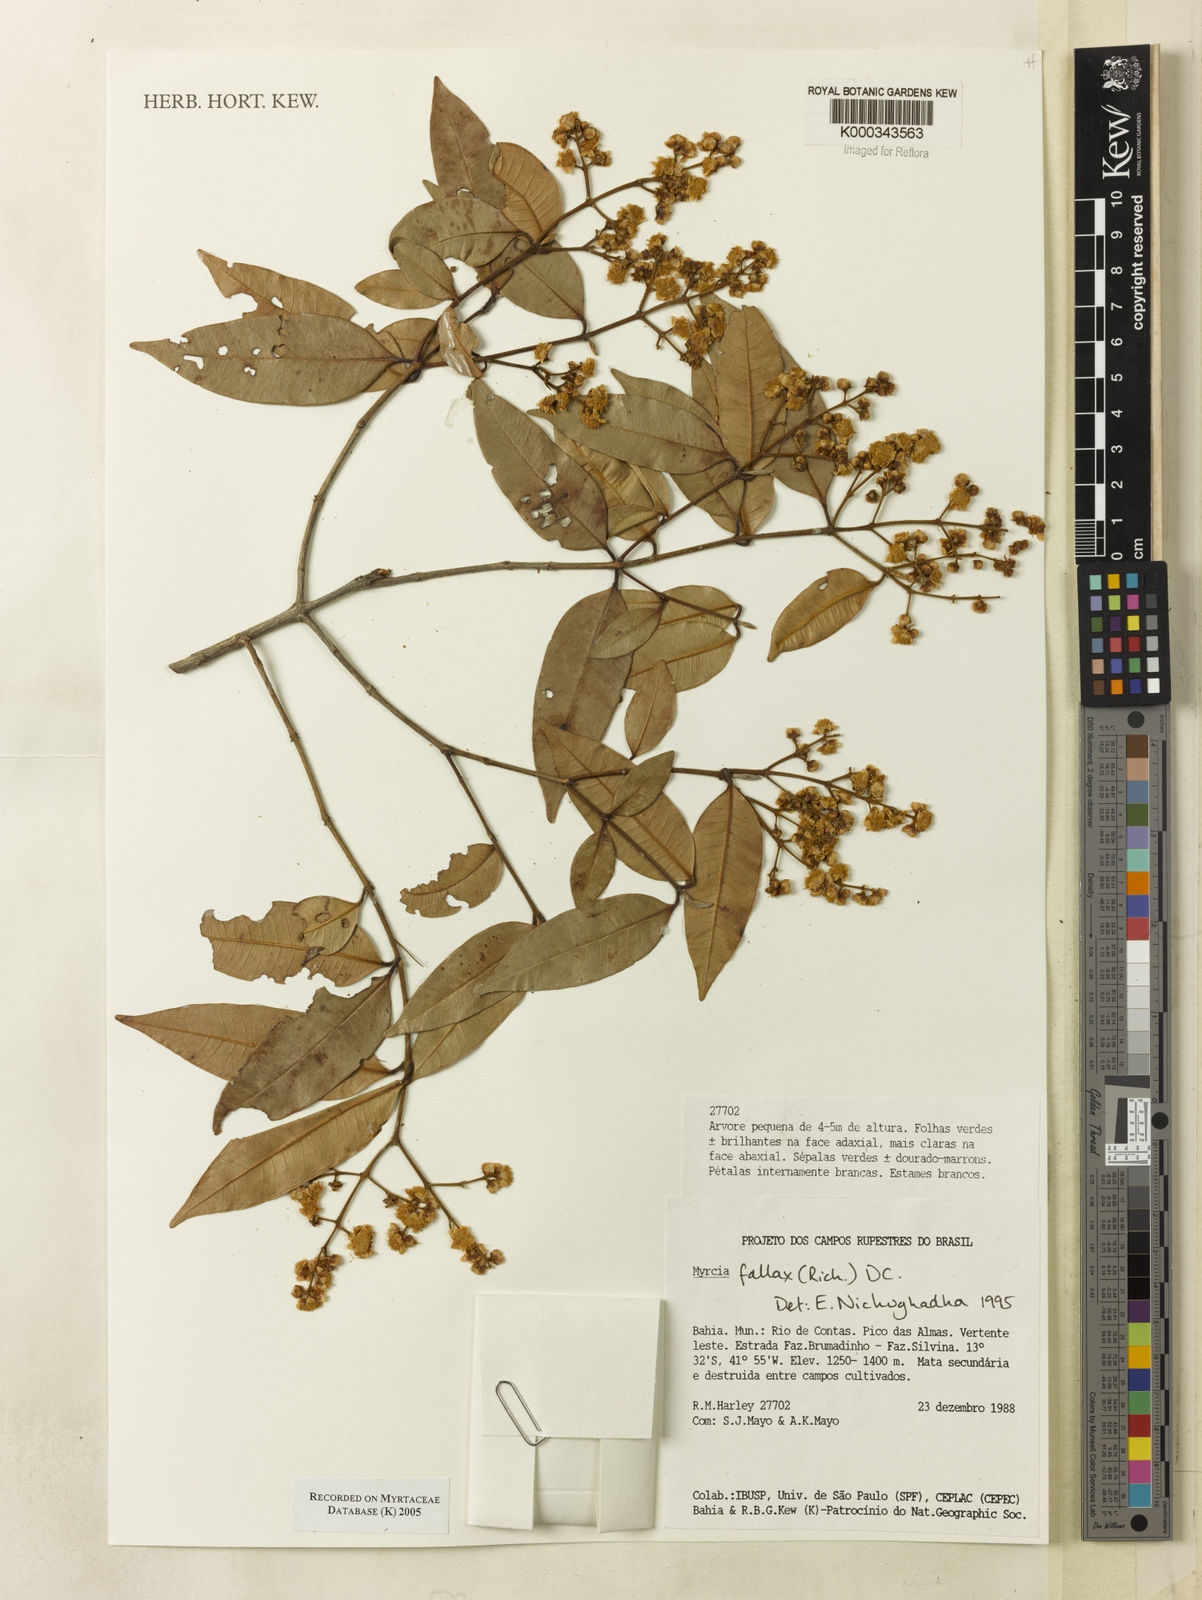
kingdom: Plantae
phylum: Tracheophyta
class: Magnoliopsida
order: Myrtales
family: Myrtaceae
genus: Myrcia
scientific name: Myrcia splendens
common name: Surinam cherry
